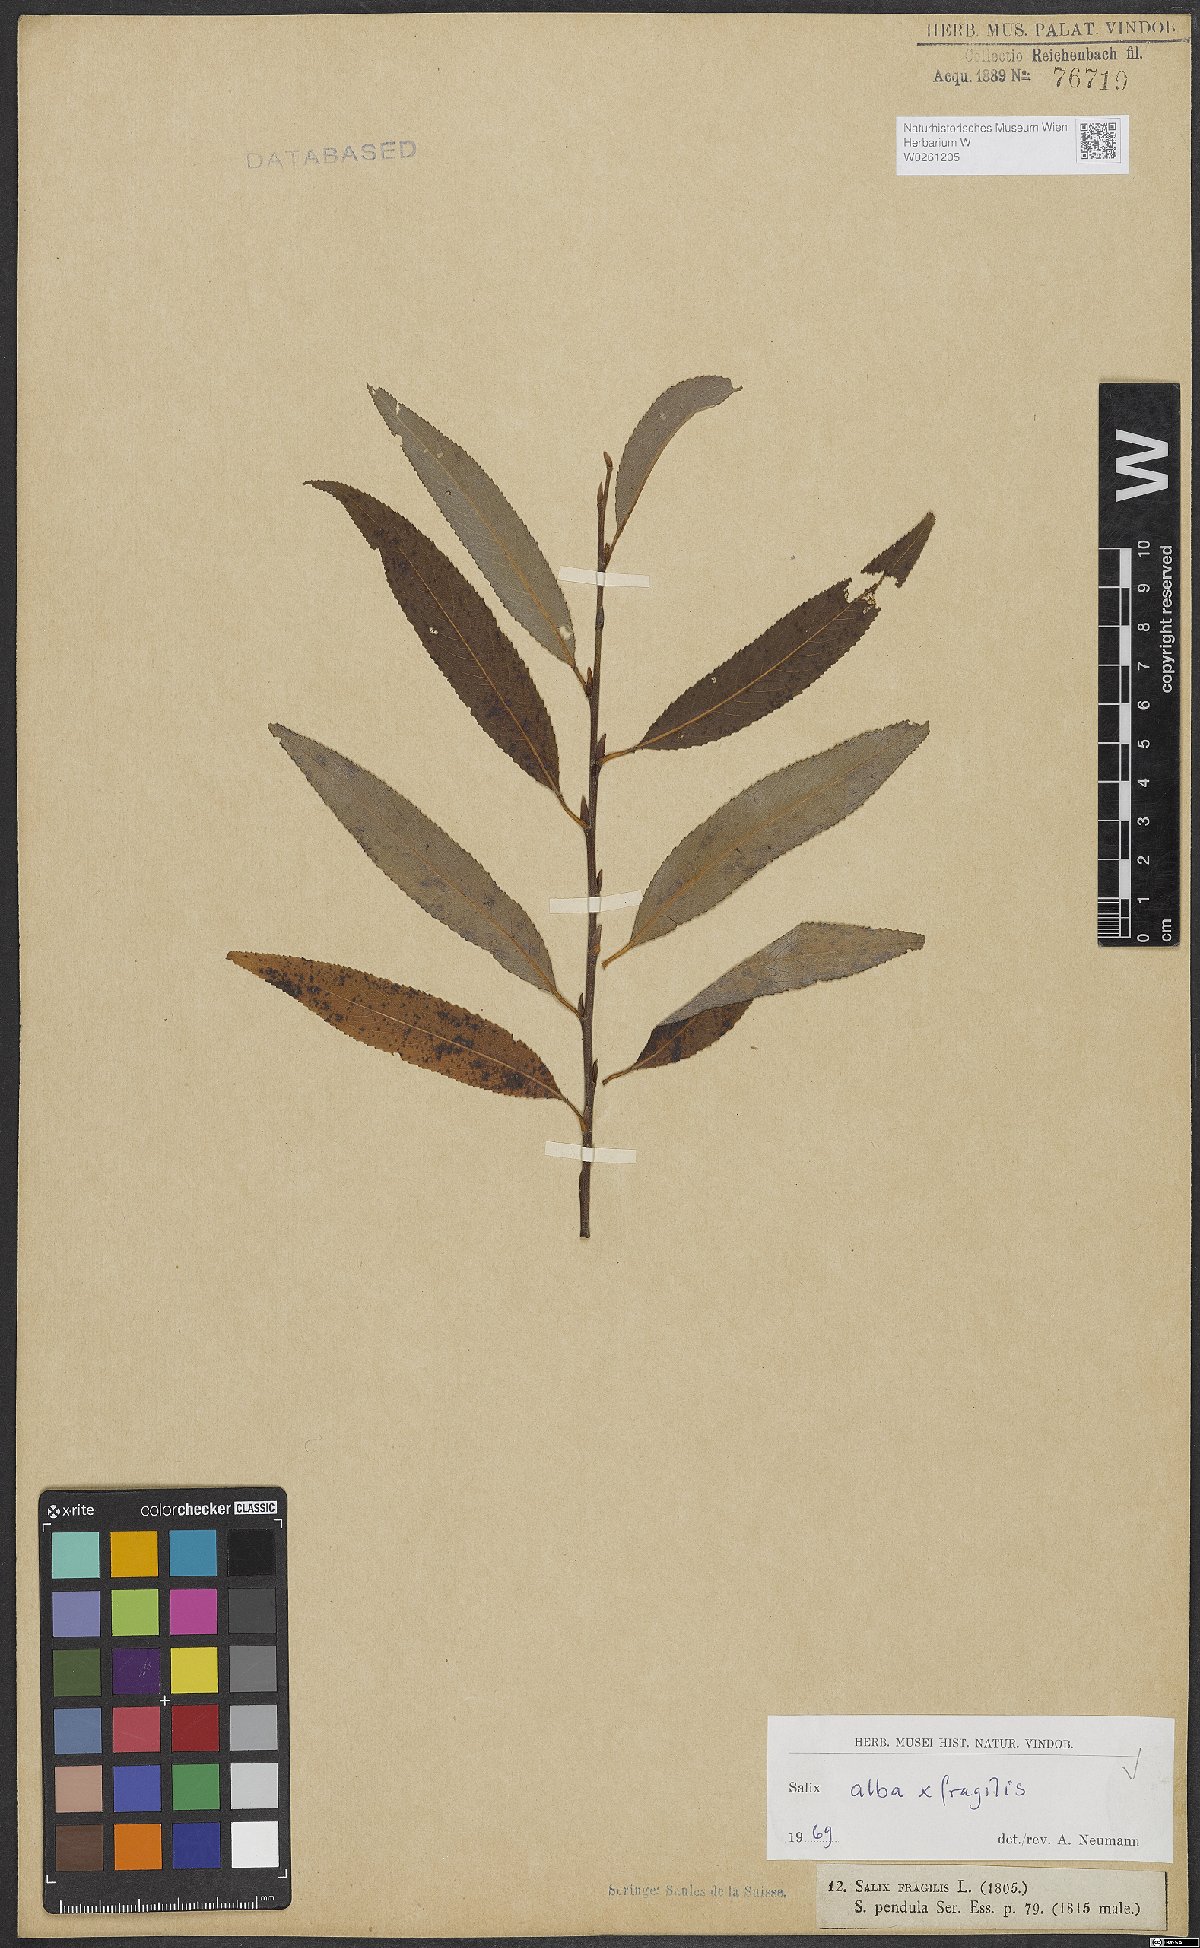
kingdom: Plantae
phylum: Tracheophyta
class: Magnoliopsida
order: Malpighiales
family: Salicaceae
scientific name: Salicaceae
